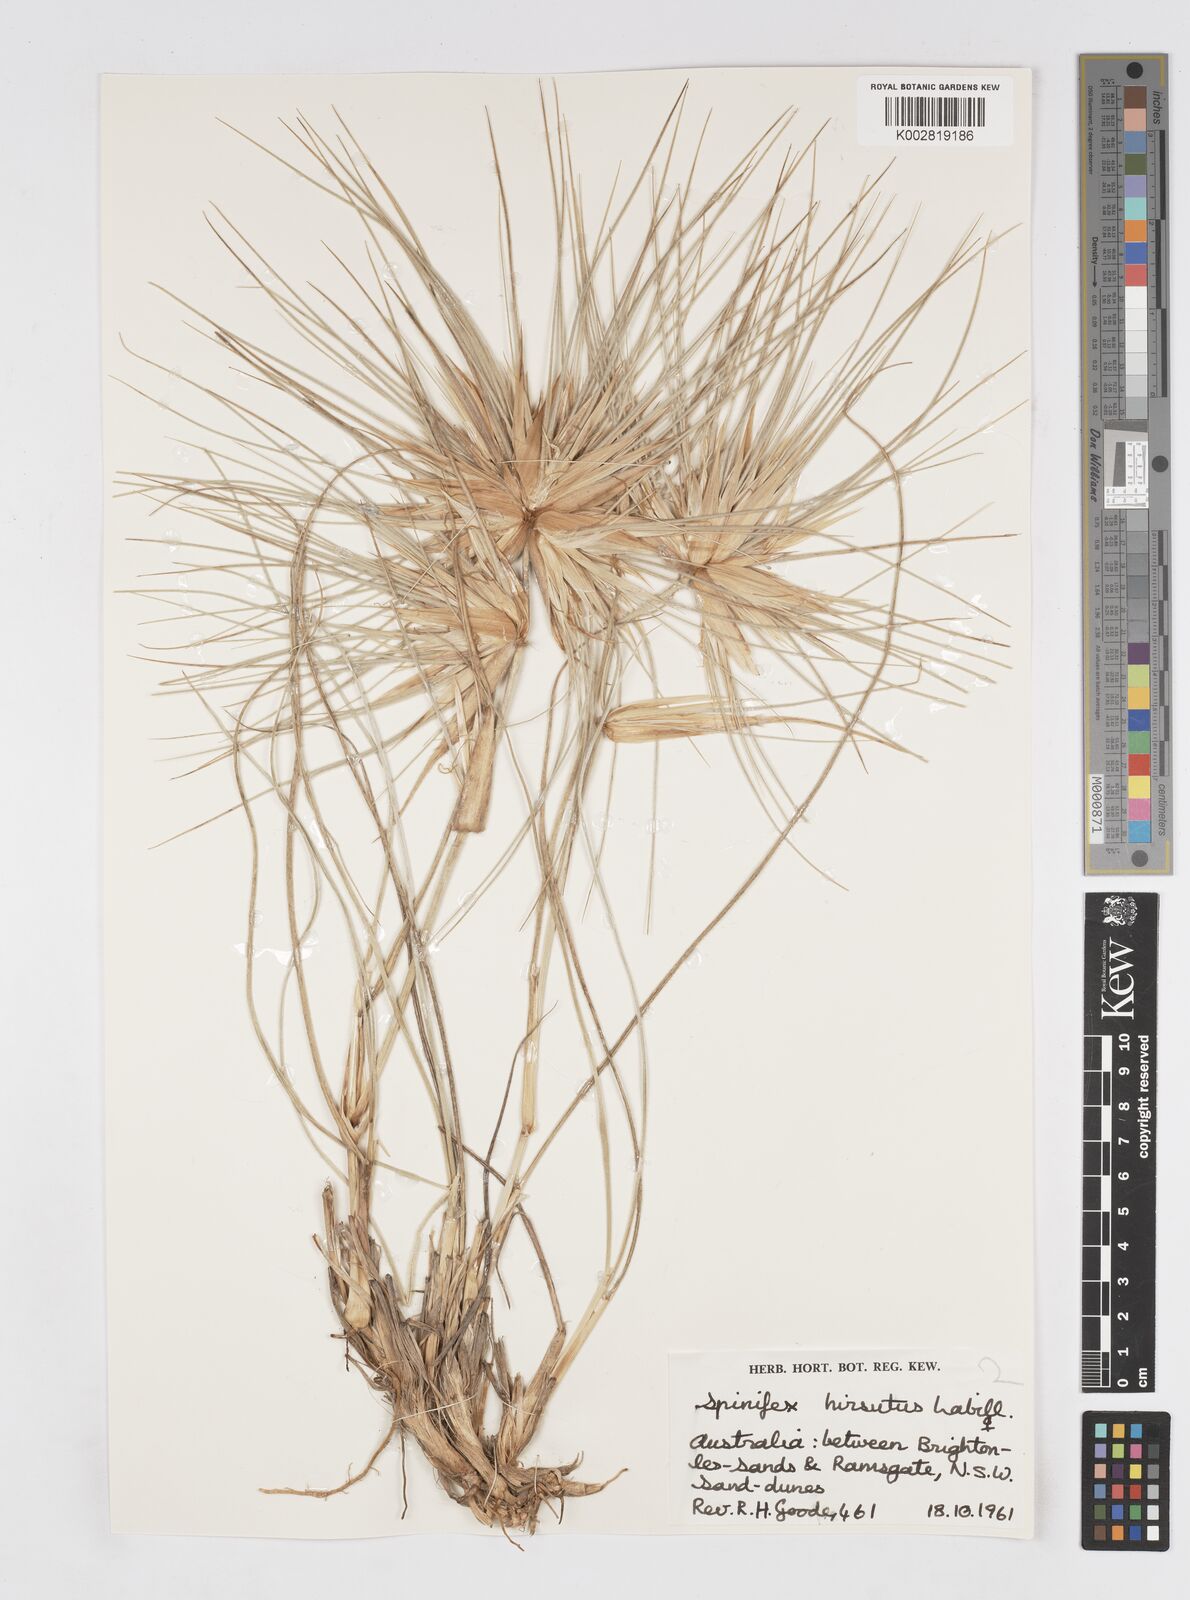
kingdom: Plantae
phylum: Tracheophyta
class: Liliopsida
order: Poales
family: Poaceae
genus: Spinifex
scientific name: Spinifex sericeus
